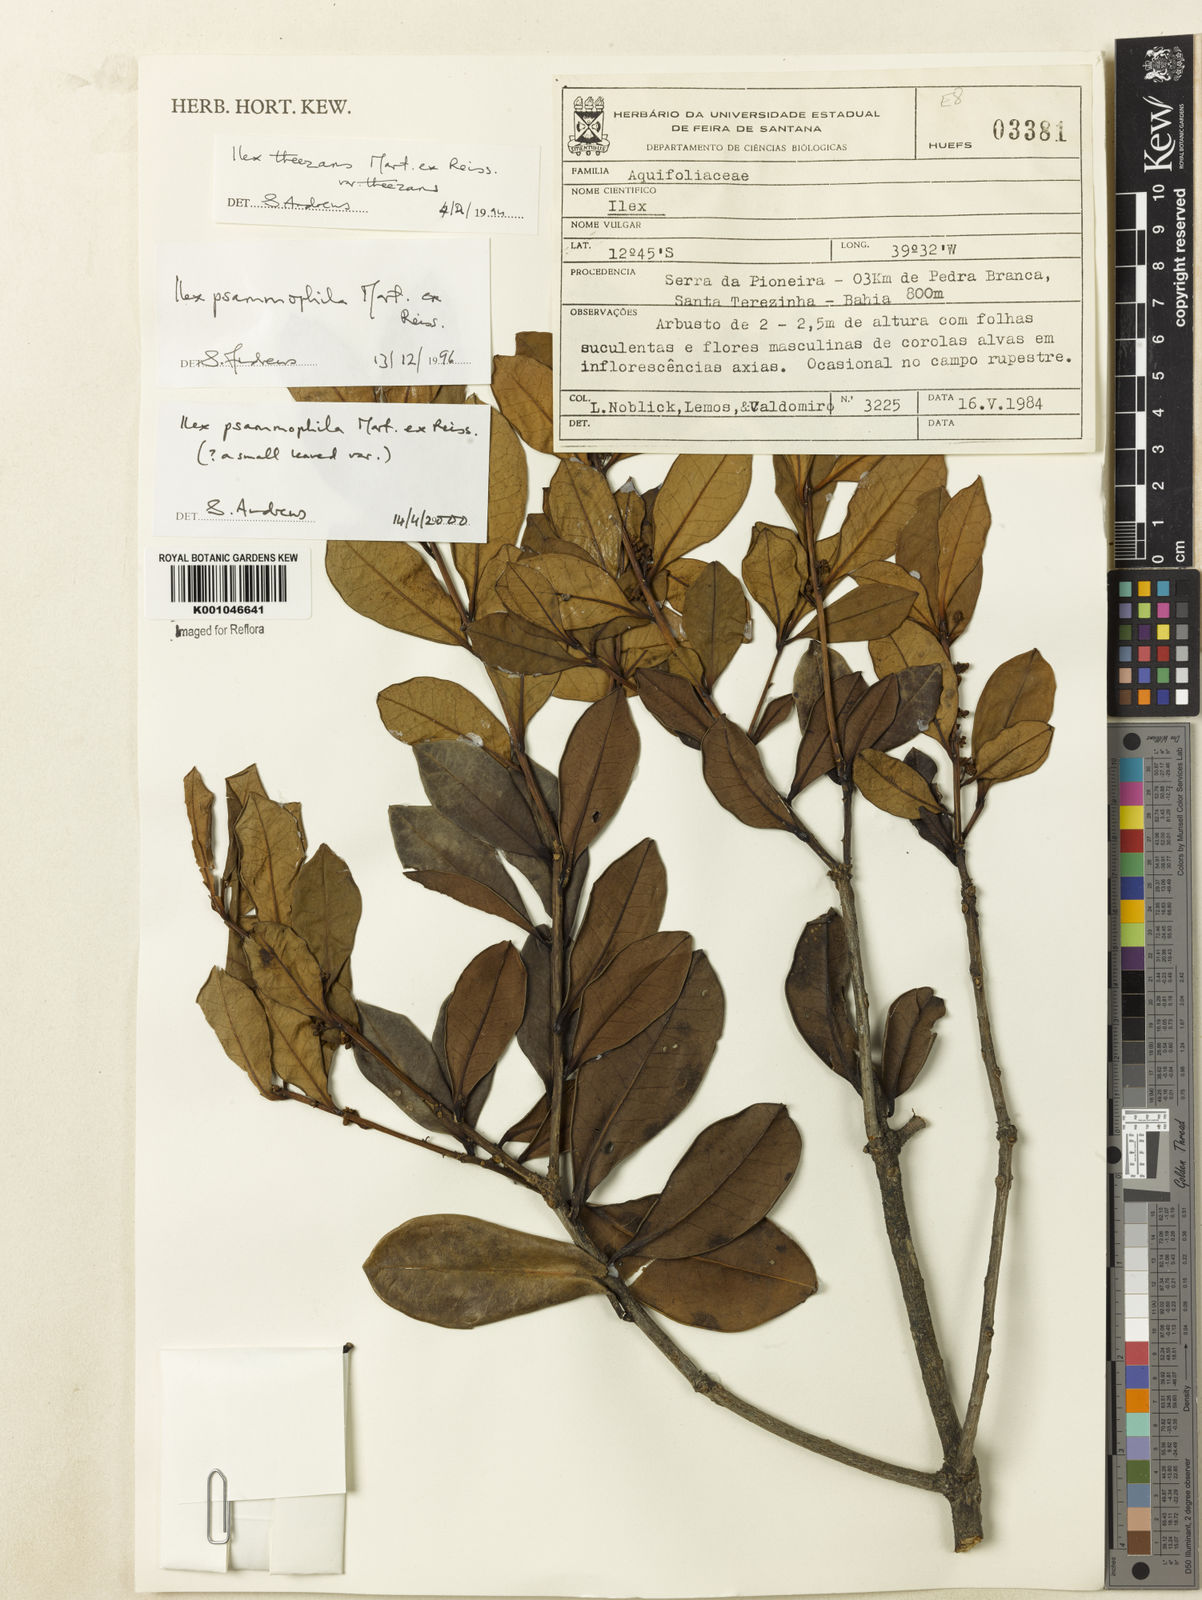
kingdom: Plantae
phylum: Tracheophyta
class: Magnoliopsida
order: Aquifoliales
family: Aquifoliaceae
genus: Ilex
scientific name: Ilex psammophila
